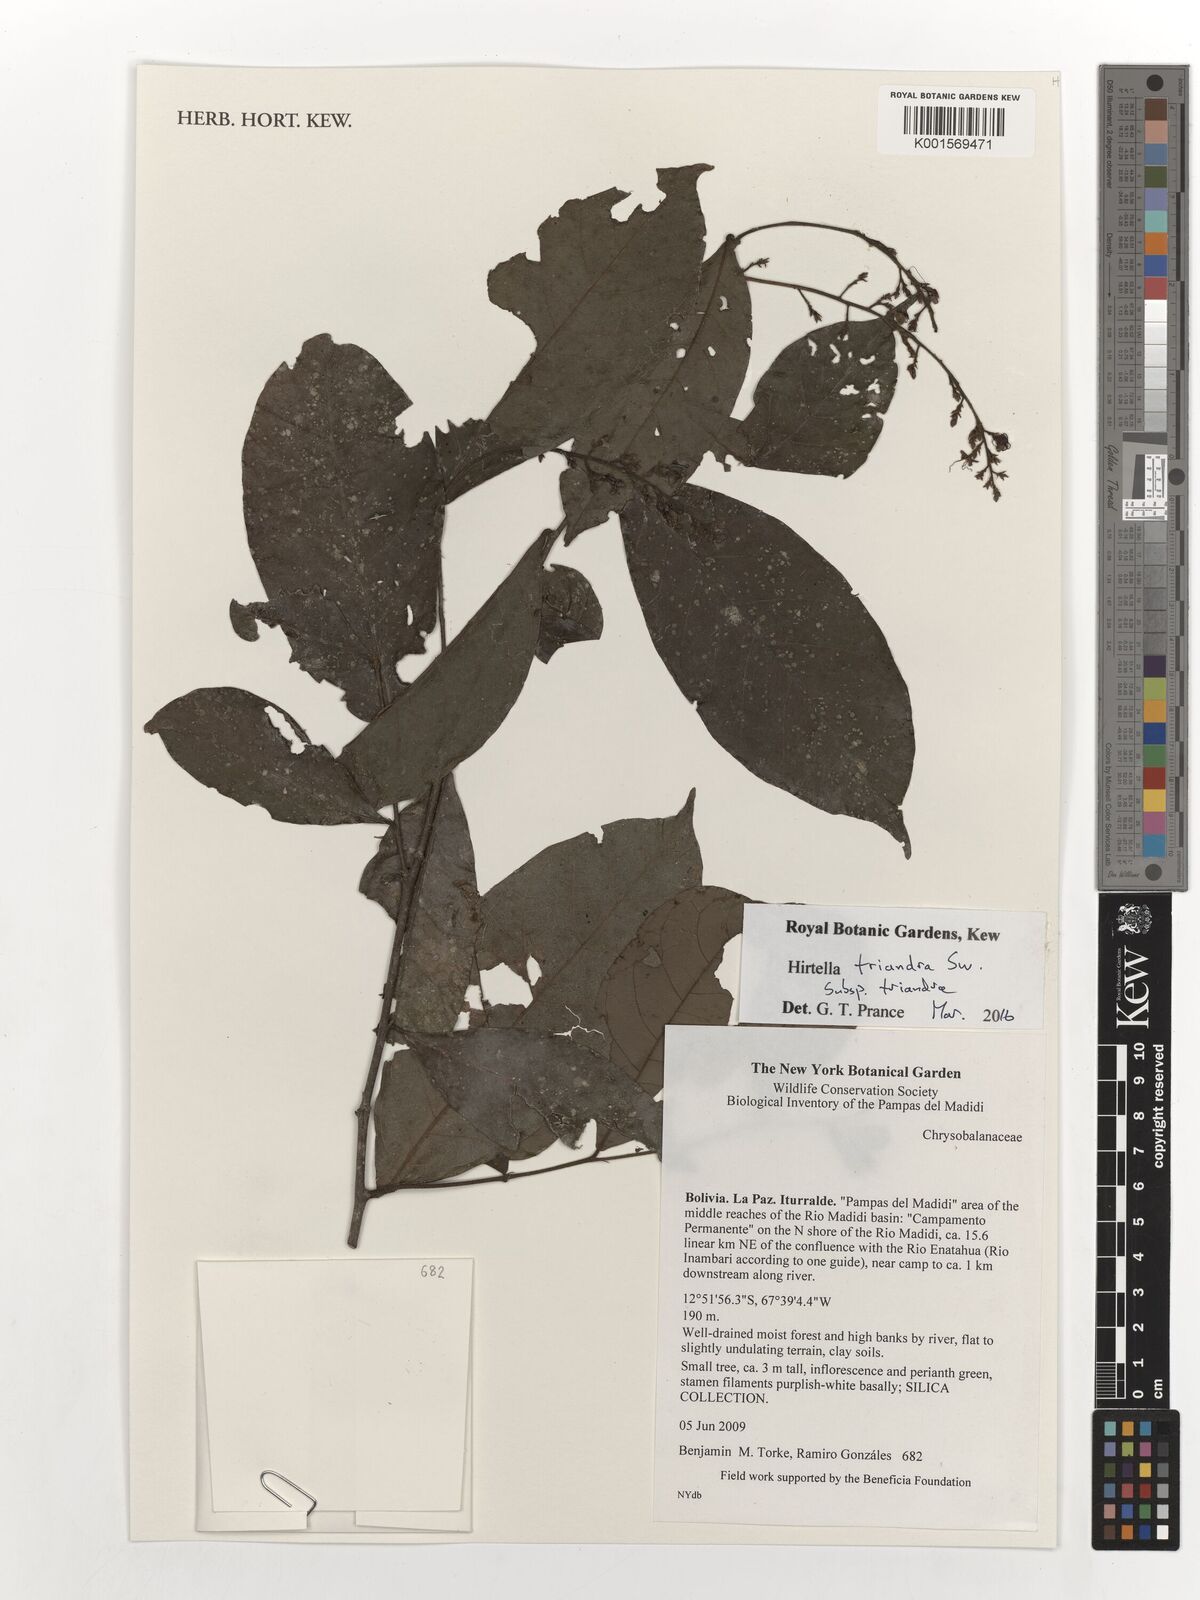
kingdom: Plantae
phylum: Tracheophyta
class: Magnoliopsida
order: Malpighiales
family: Chrysobalanaceae
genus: Hirtella
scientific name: Hirtella triandra
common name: Hairy plum
